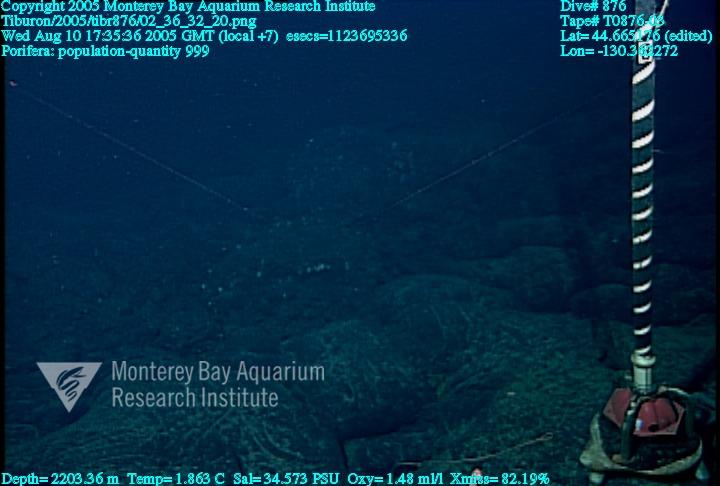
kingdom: Animalia
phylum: Porifera
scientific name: Porifera
